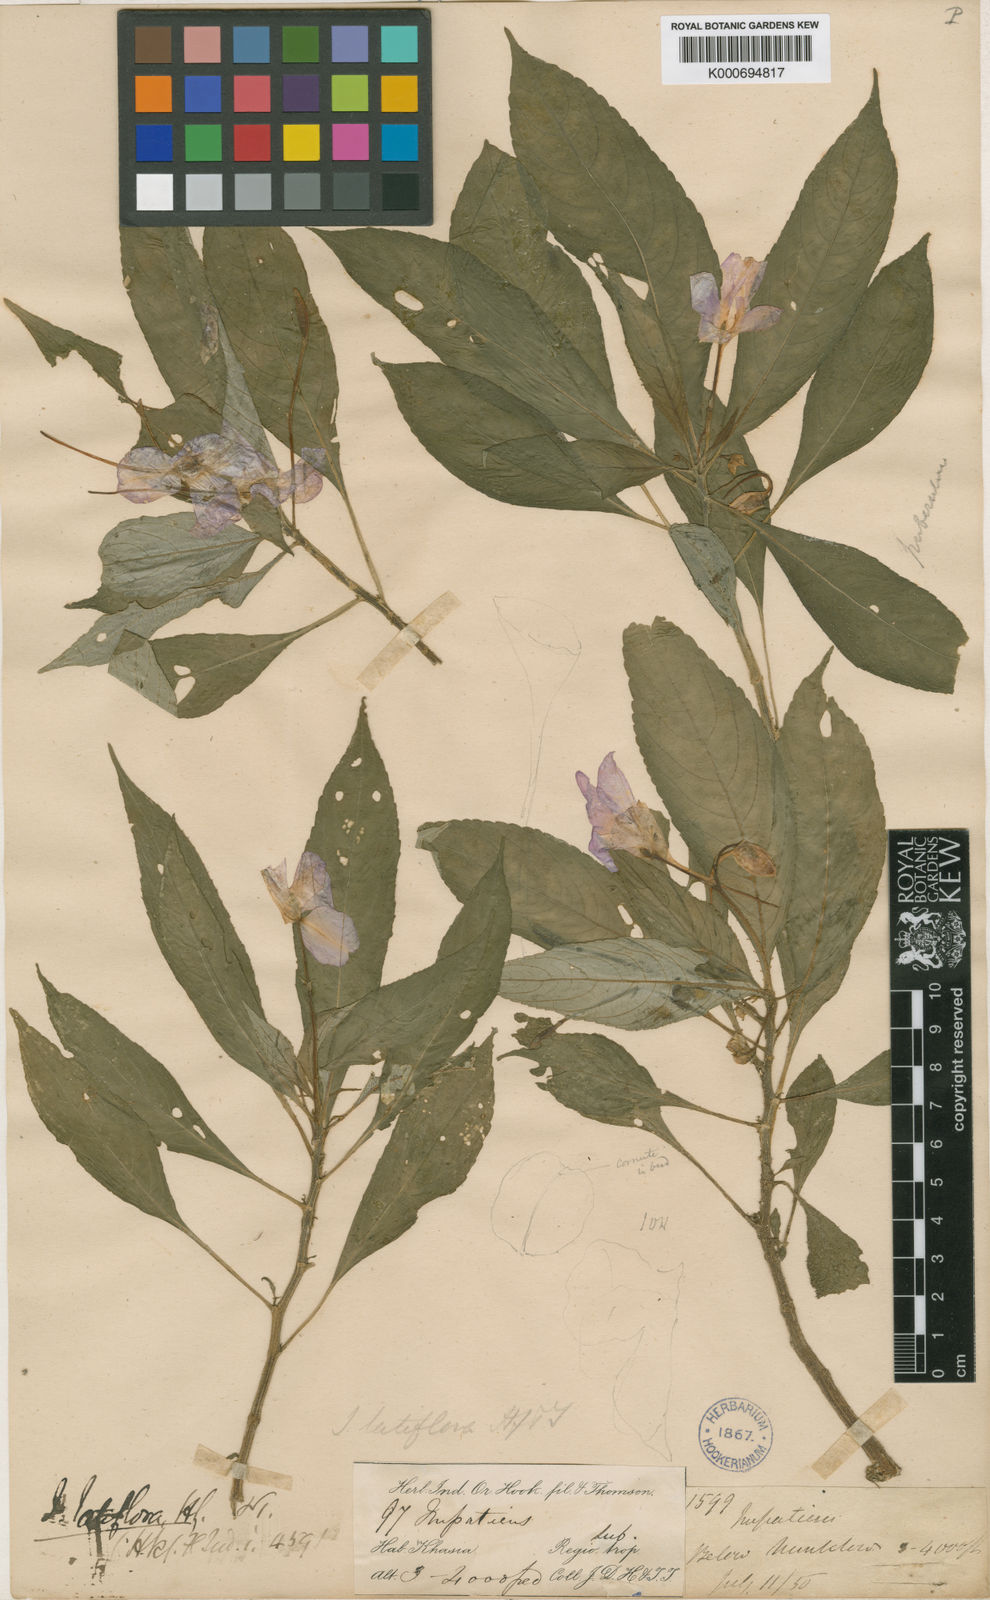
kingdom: Plantae
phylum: Tracheophyta
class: Magnoliopsida
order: Ericales
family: Balsaminaceae
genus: Impatiens
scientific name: Impatiens latiflora
